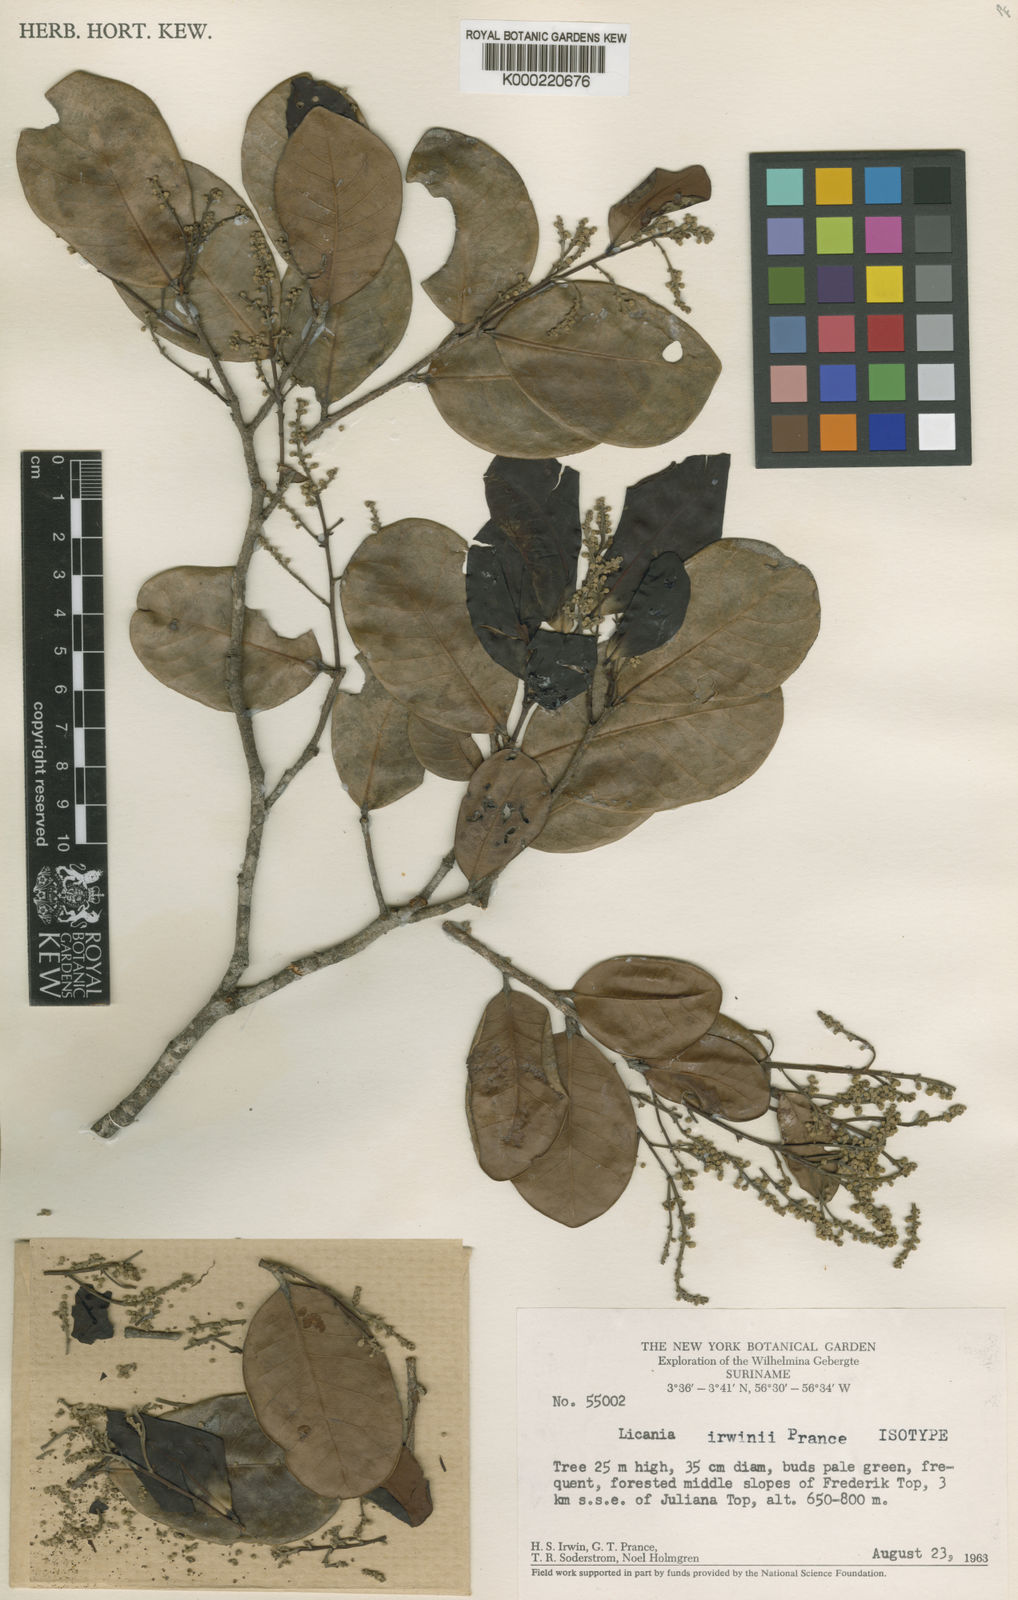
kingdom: Plantae
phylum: Tracheophyta
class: Magnoliopsida
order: Malpighiales
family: Chrysobalanaceae
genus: Licania
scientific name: Licania irwinii
